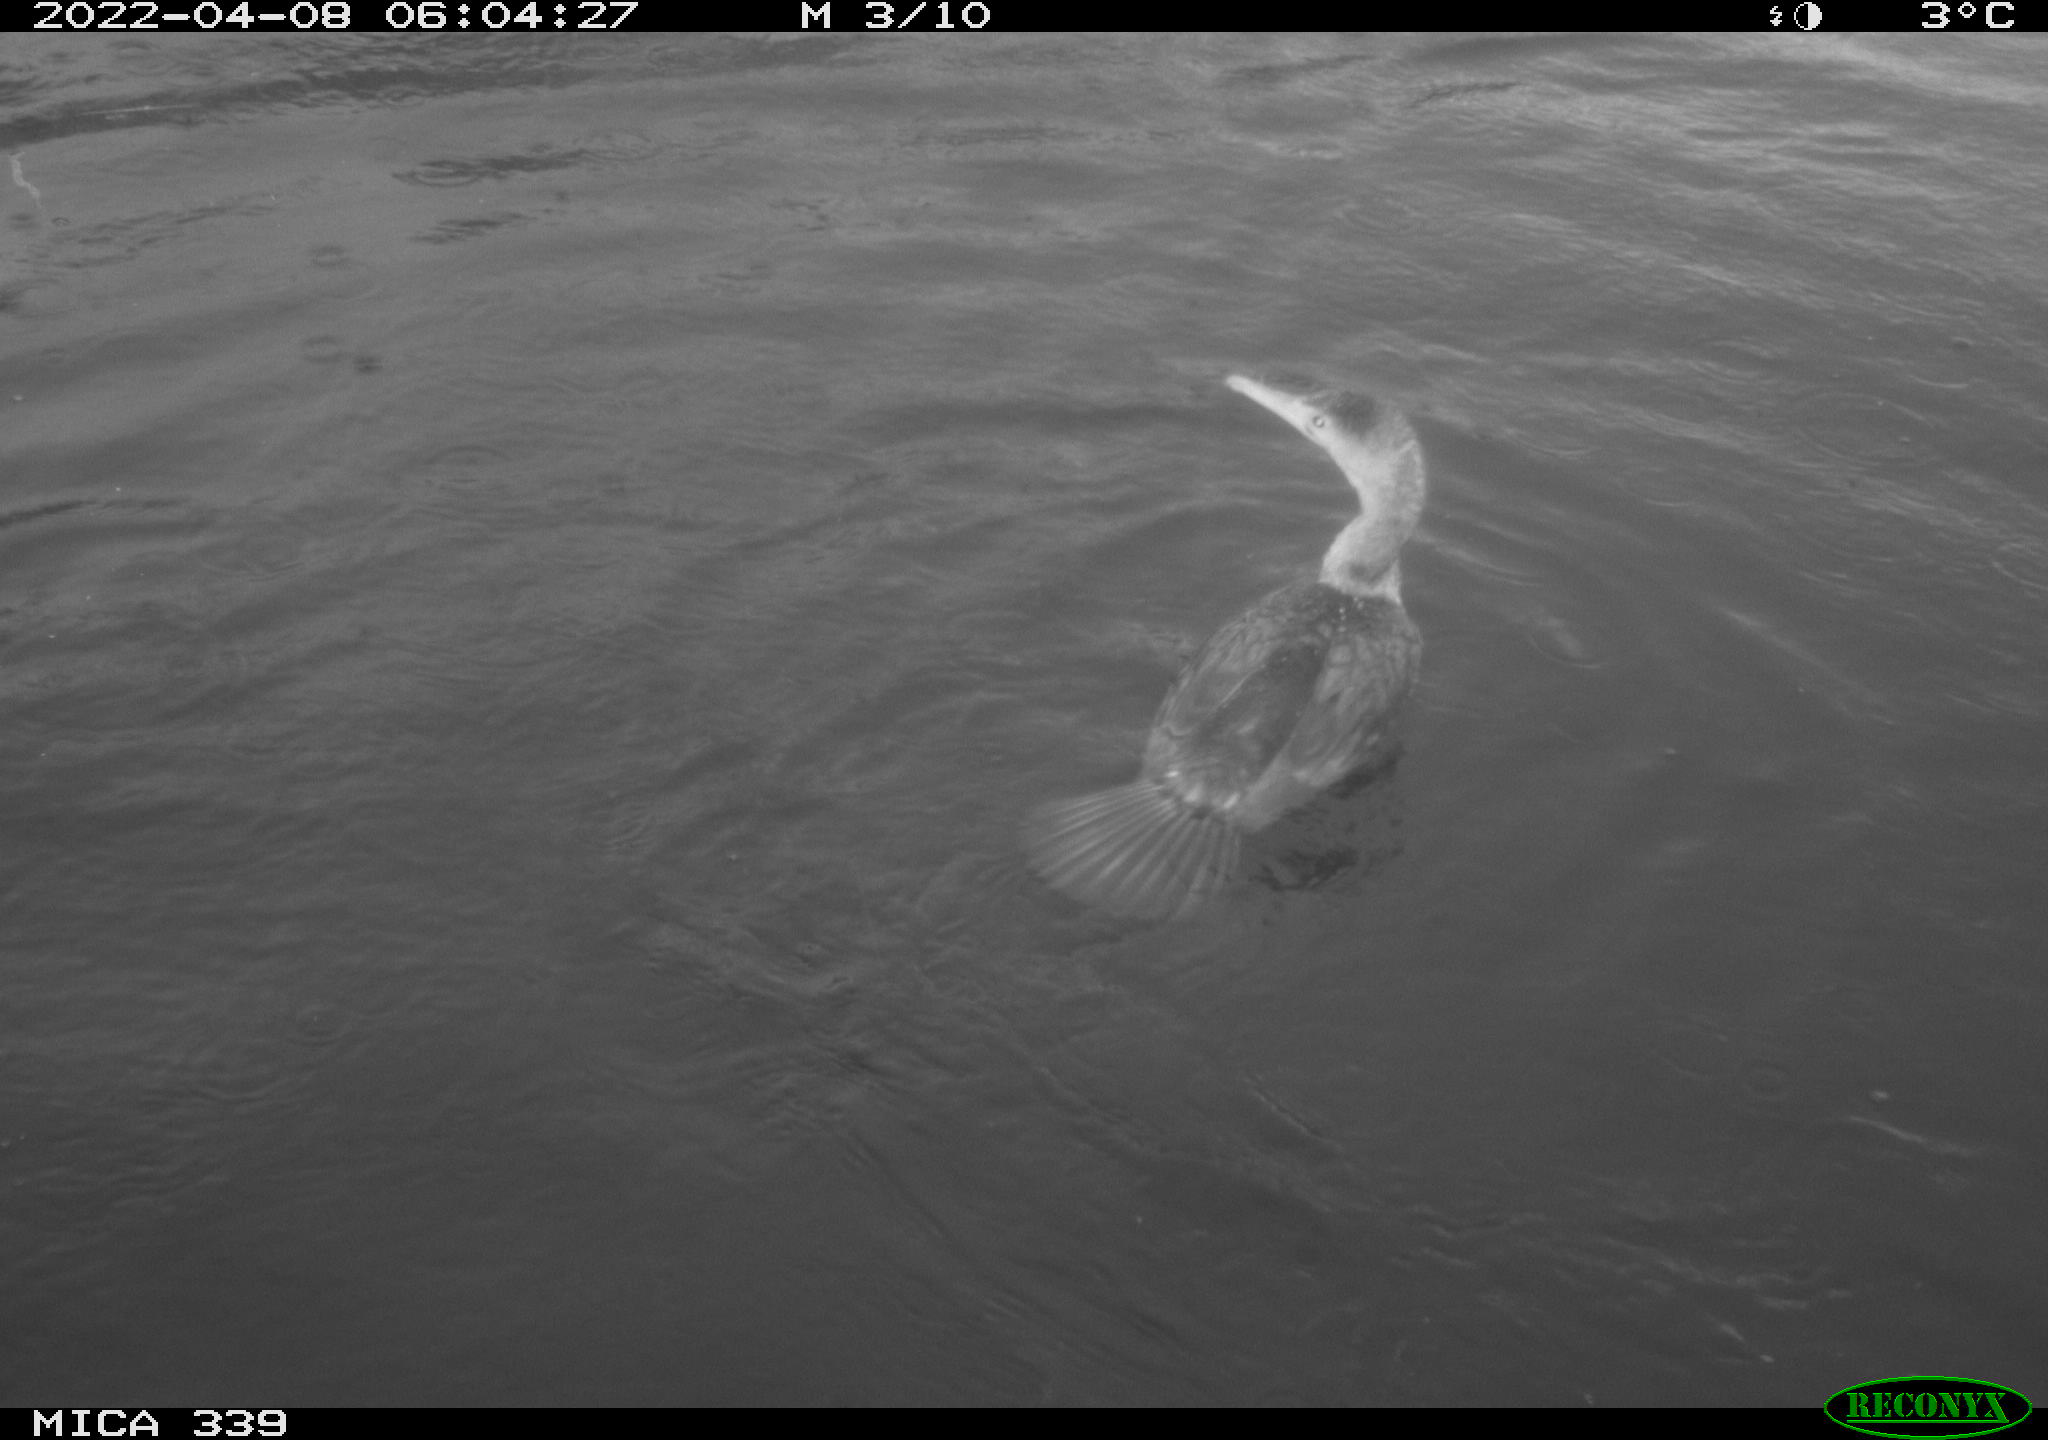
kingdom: Animalia
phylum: Chordata
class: Aves
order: Suliformes
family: Phalacrocoracidae
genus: Phalacrocorax
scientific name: Phalacrocorax carbo
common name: Great cormorant
